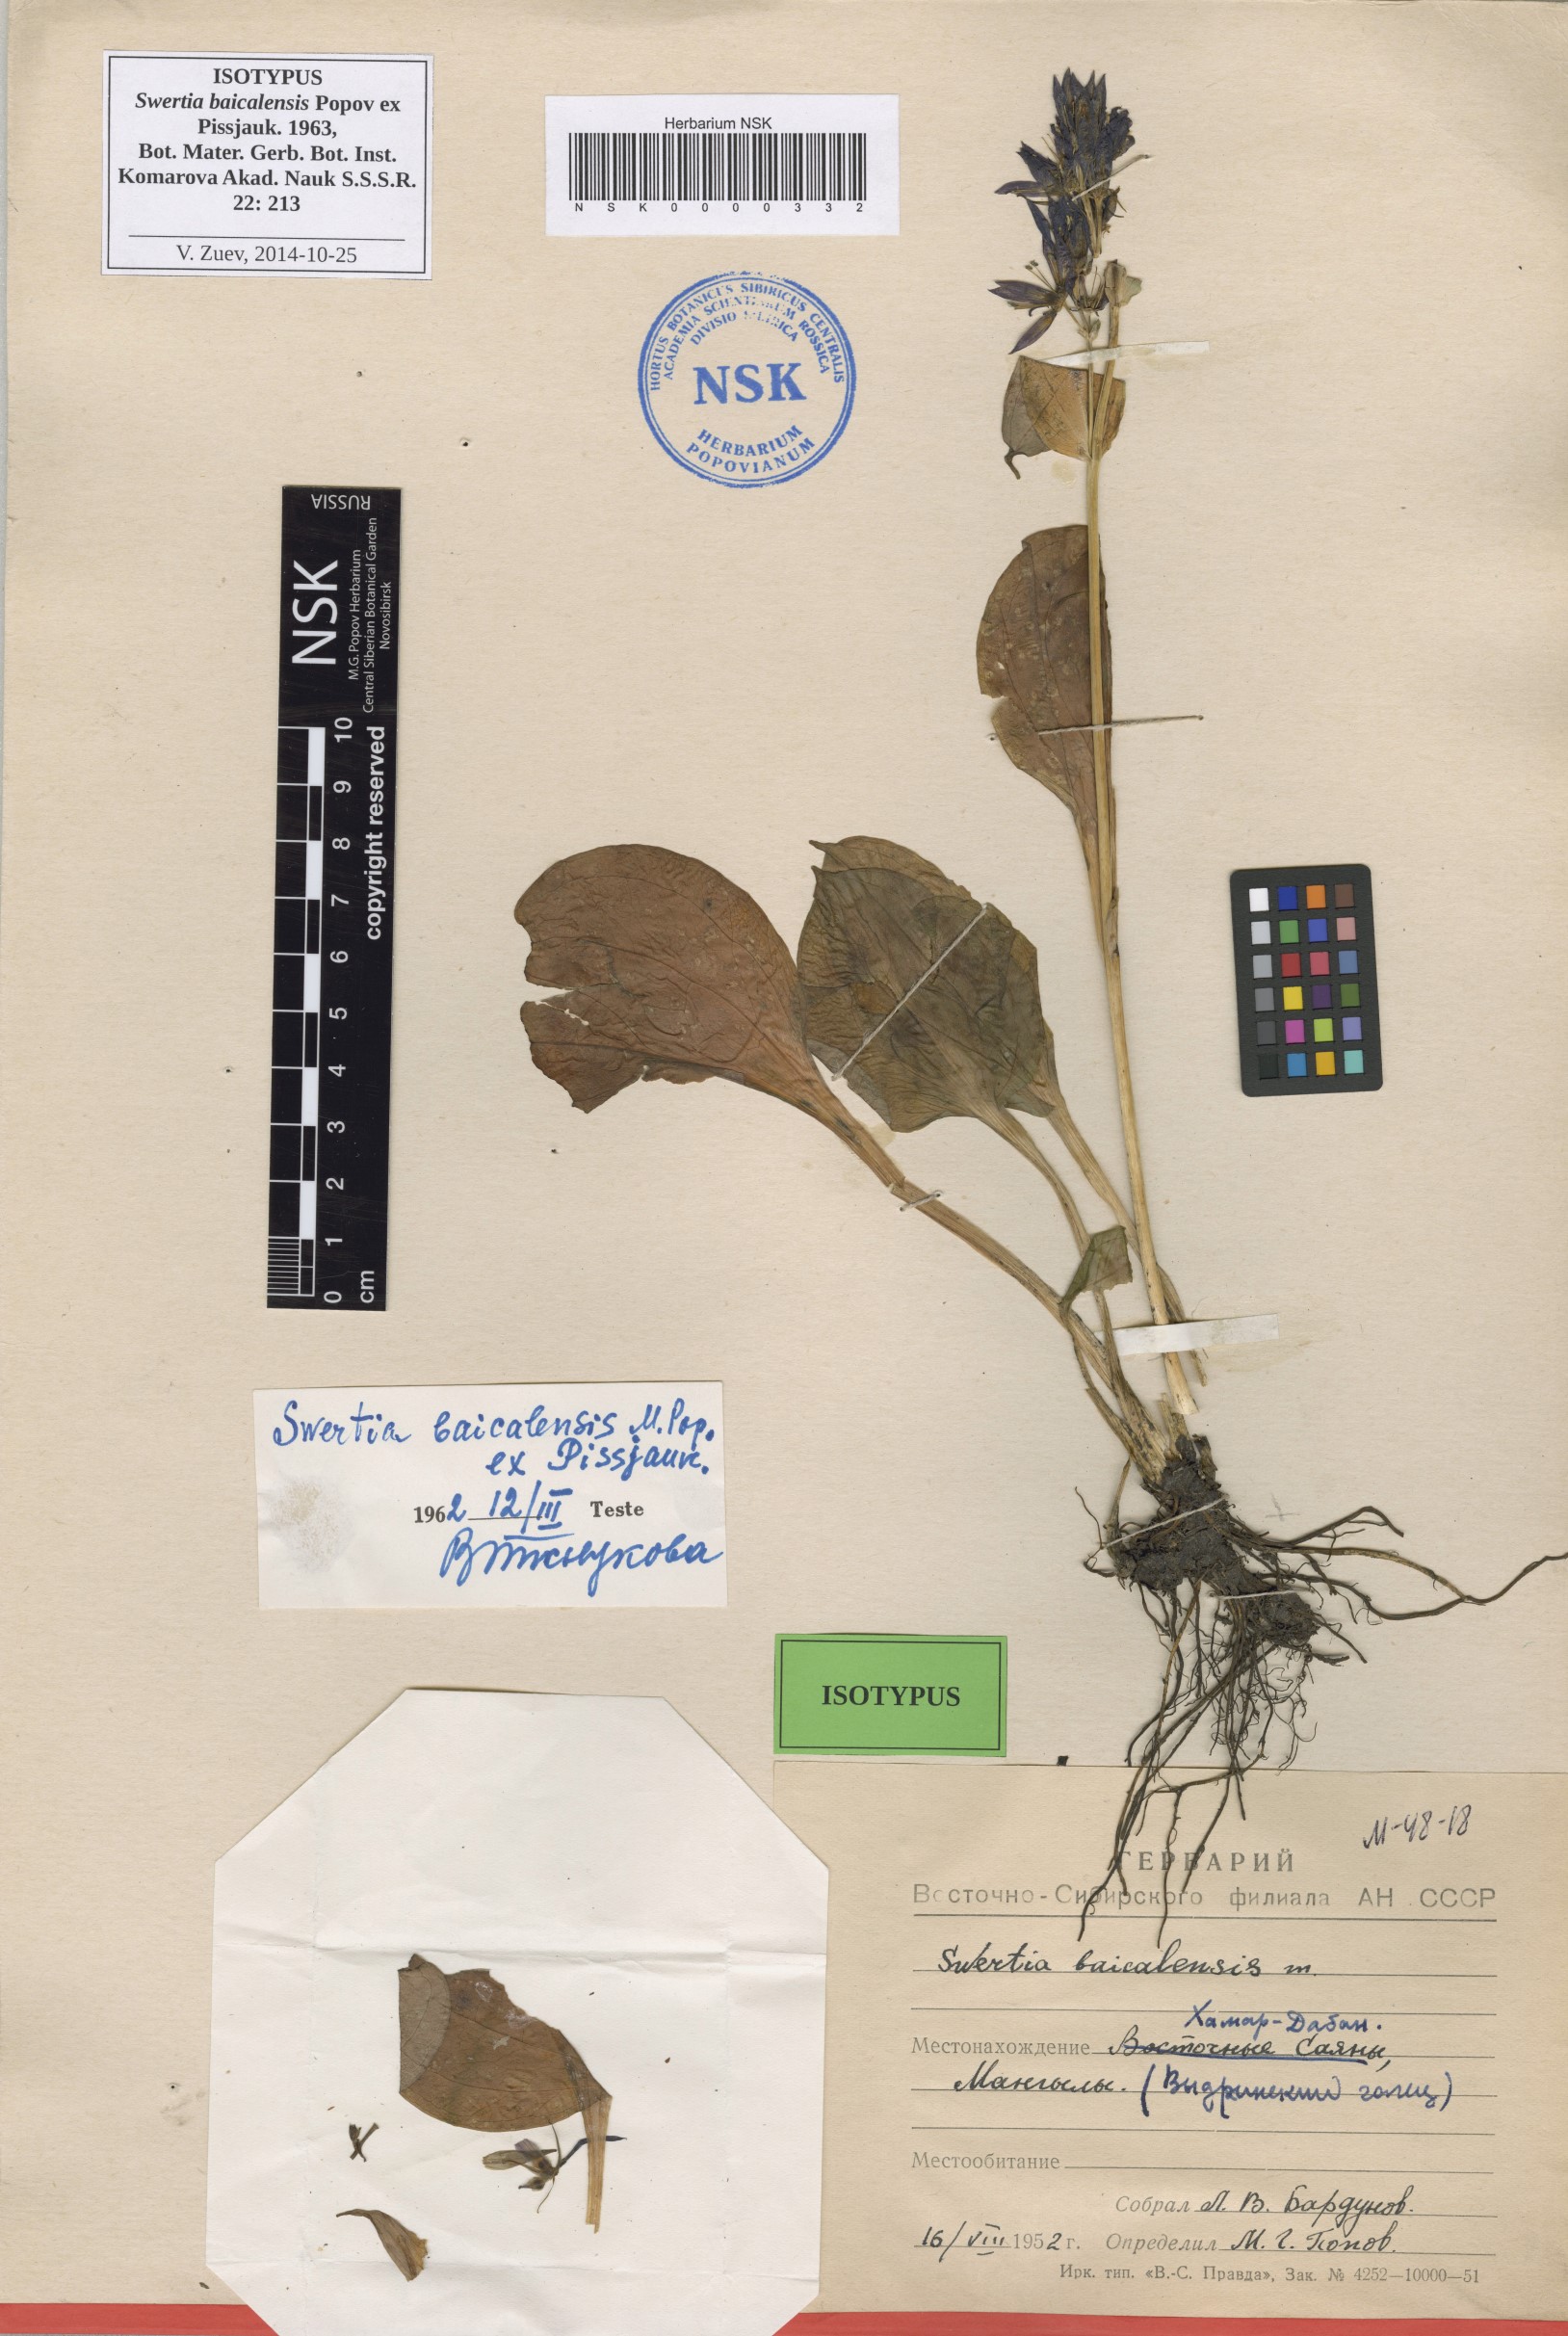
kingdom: Plantae
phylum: Tracheophyta
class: Magnoliopsida
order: Gentianales
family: Gentianaceae
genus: Swertia
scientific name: Swertia obtusa
